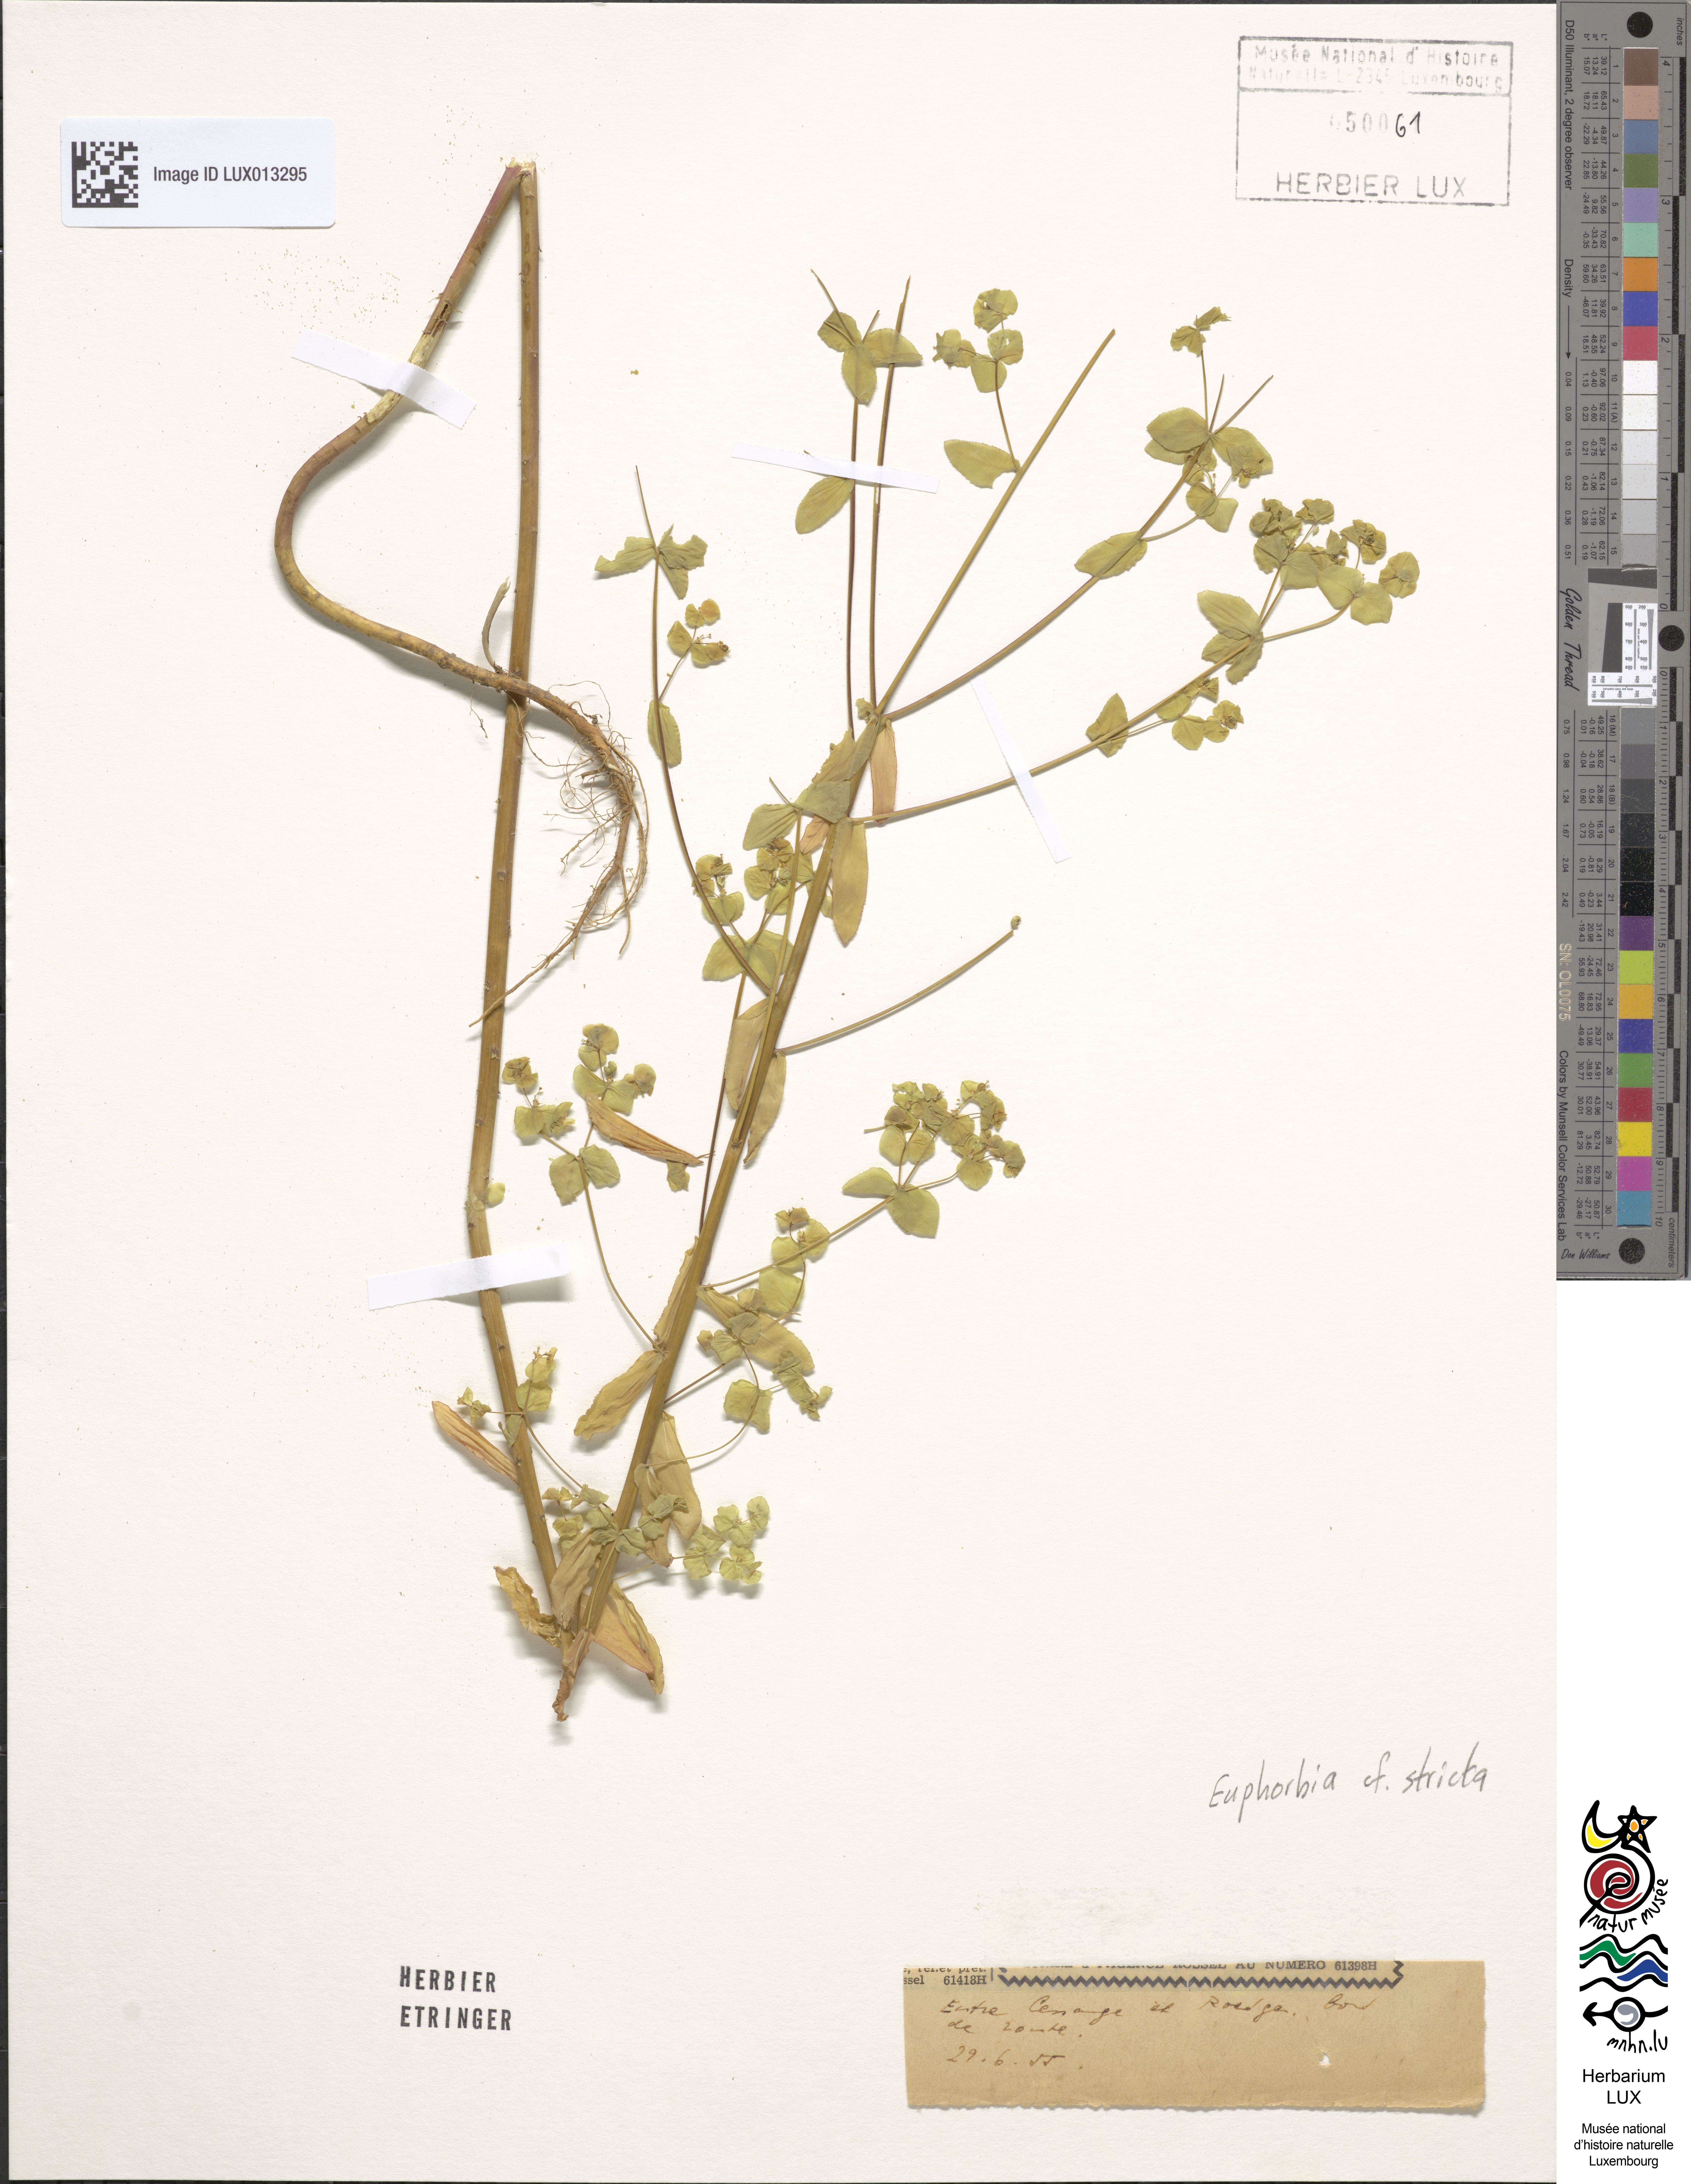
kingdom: Plantae
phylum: Tracheophyta
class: Magnoliopsida
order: Malpighiales
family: Euphorbiaceae
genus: Euphorbia
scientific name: Euphorbia stricta
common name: Upright spurge
